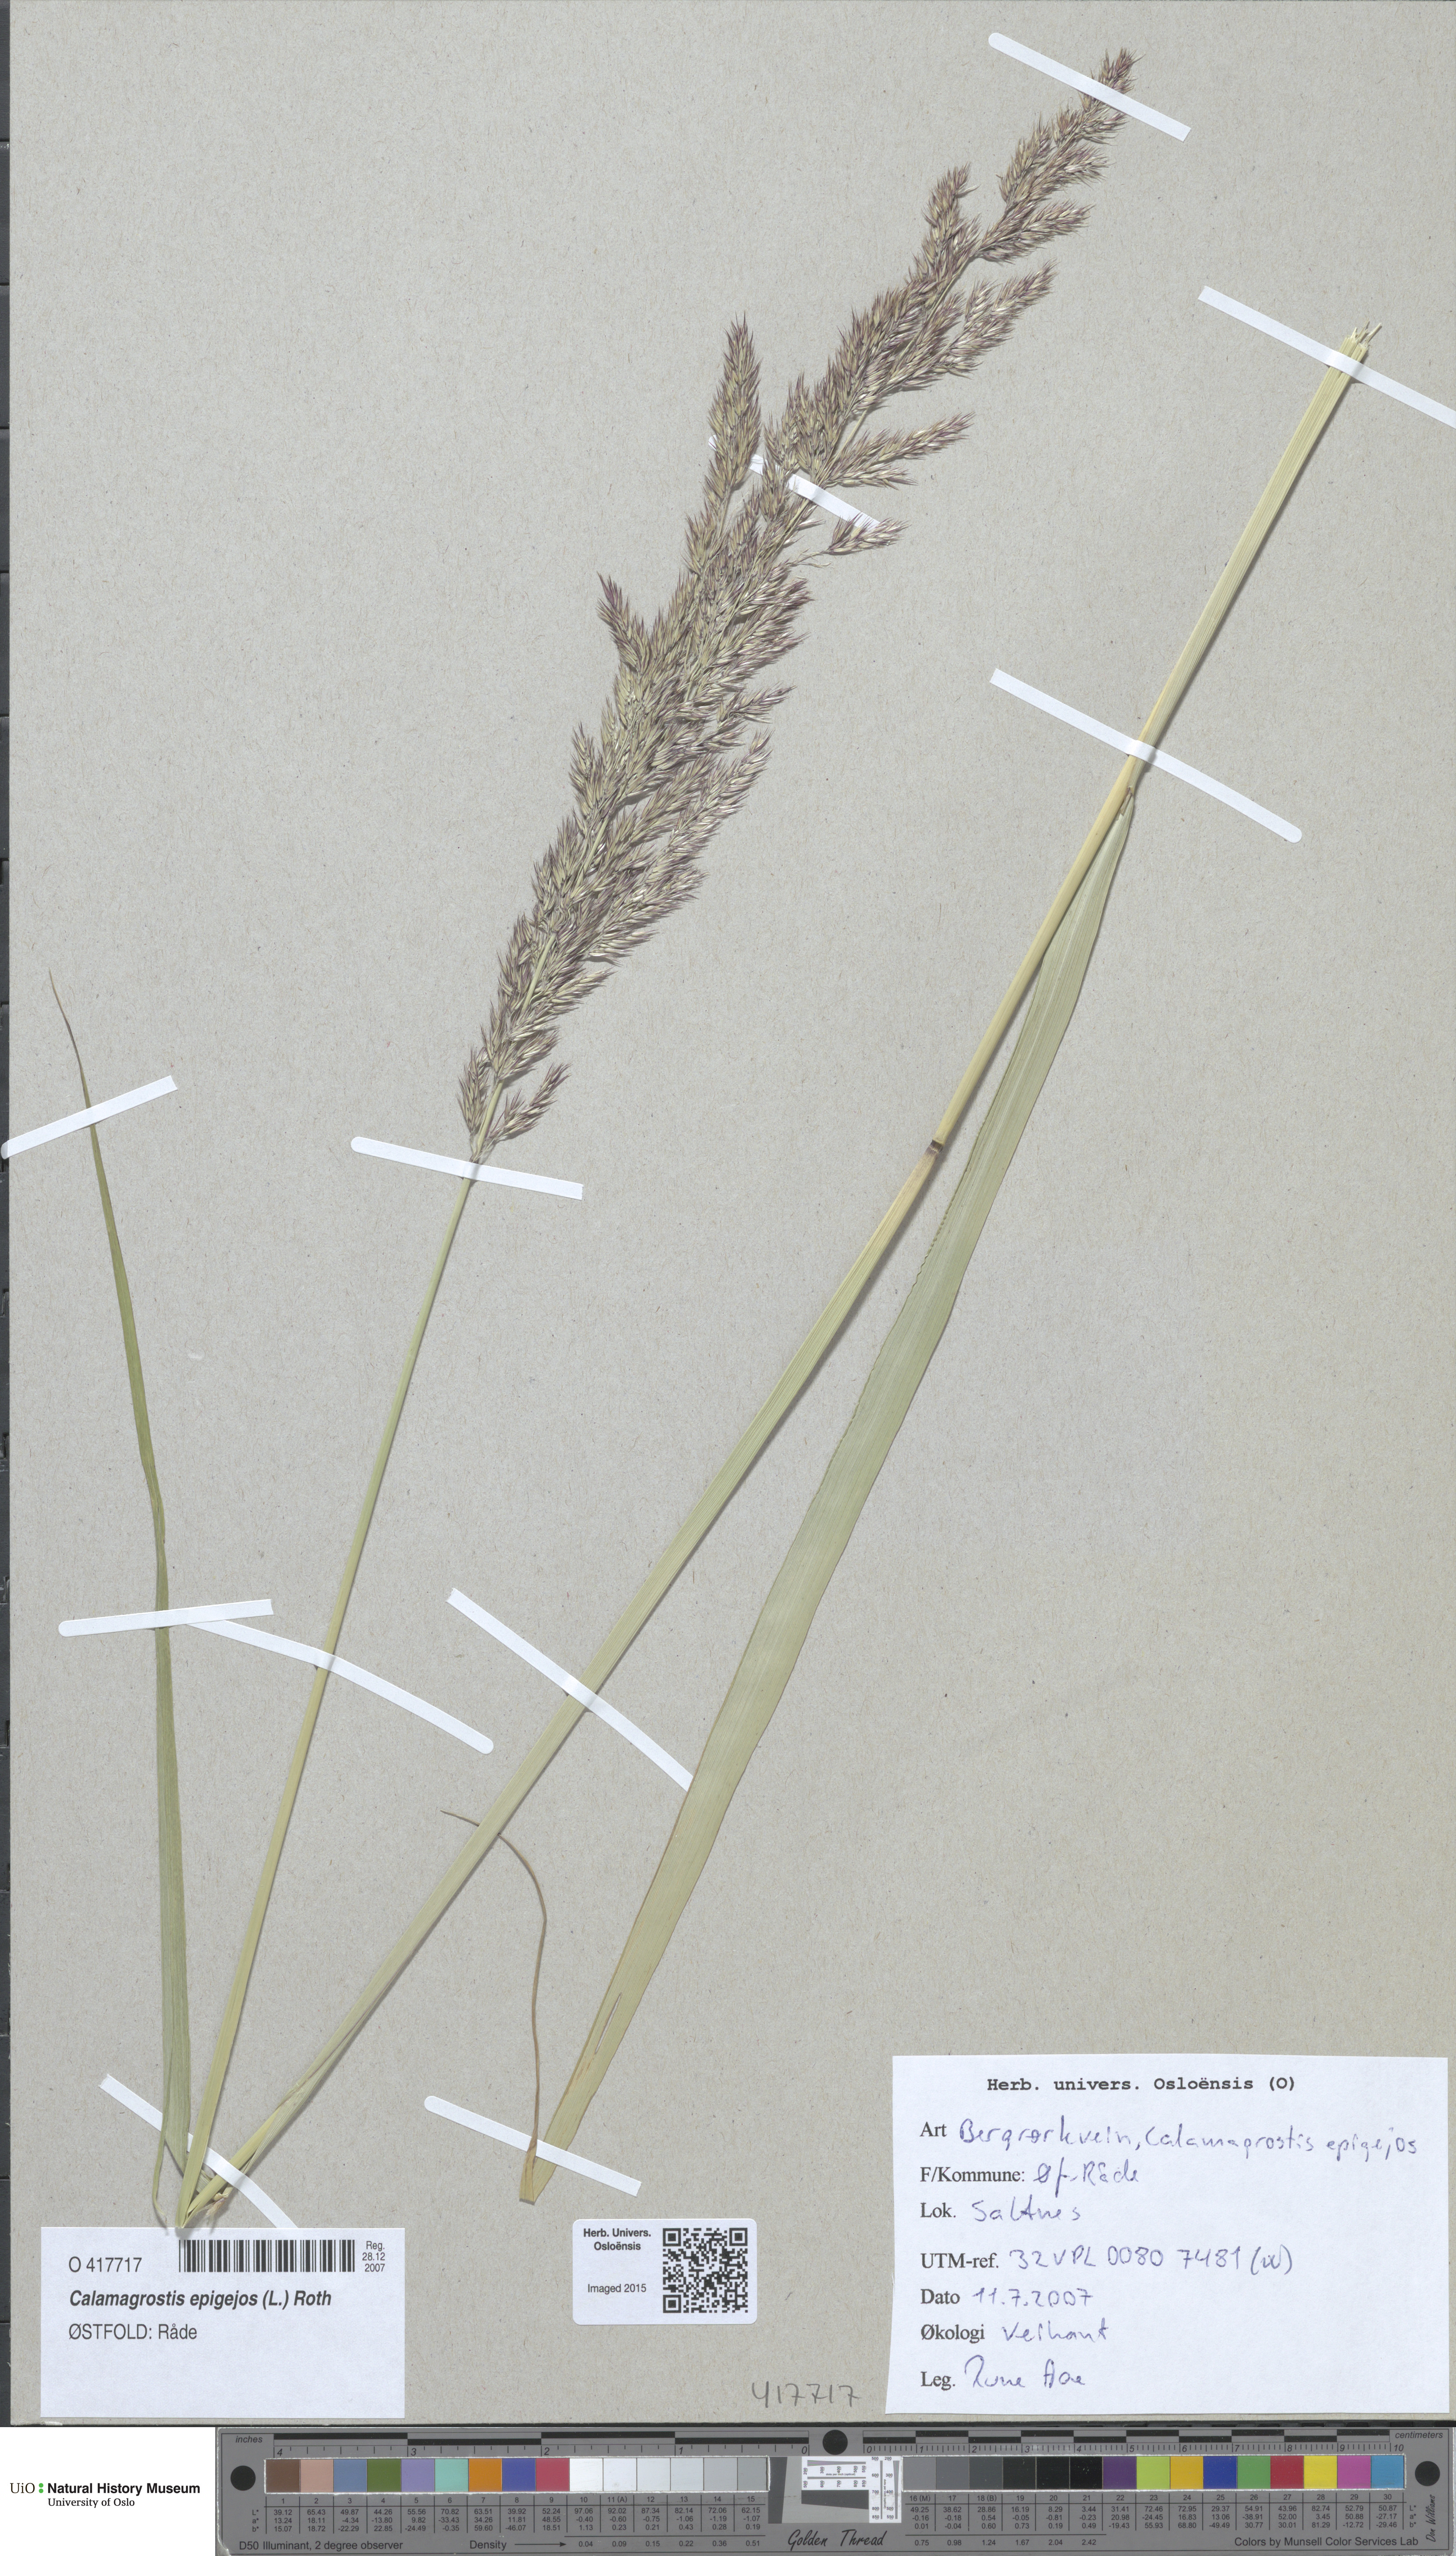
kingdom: Plantae
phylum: Tracheophyta
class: Liliopsida
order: Poales
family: Poaceae
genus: Calamagrostis
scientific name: Calamagrostis epigejos
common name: Wood small-reed
